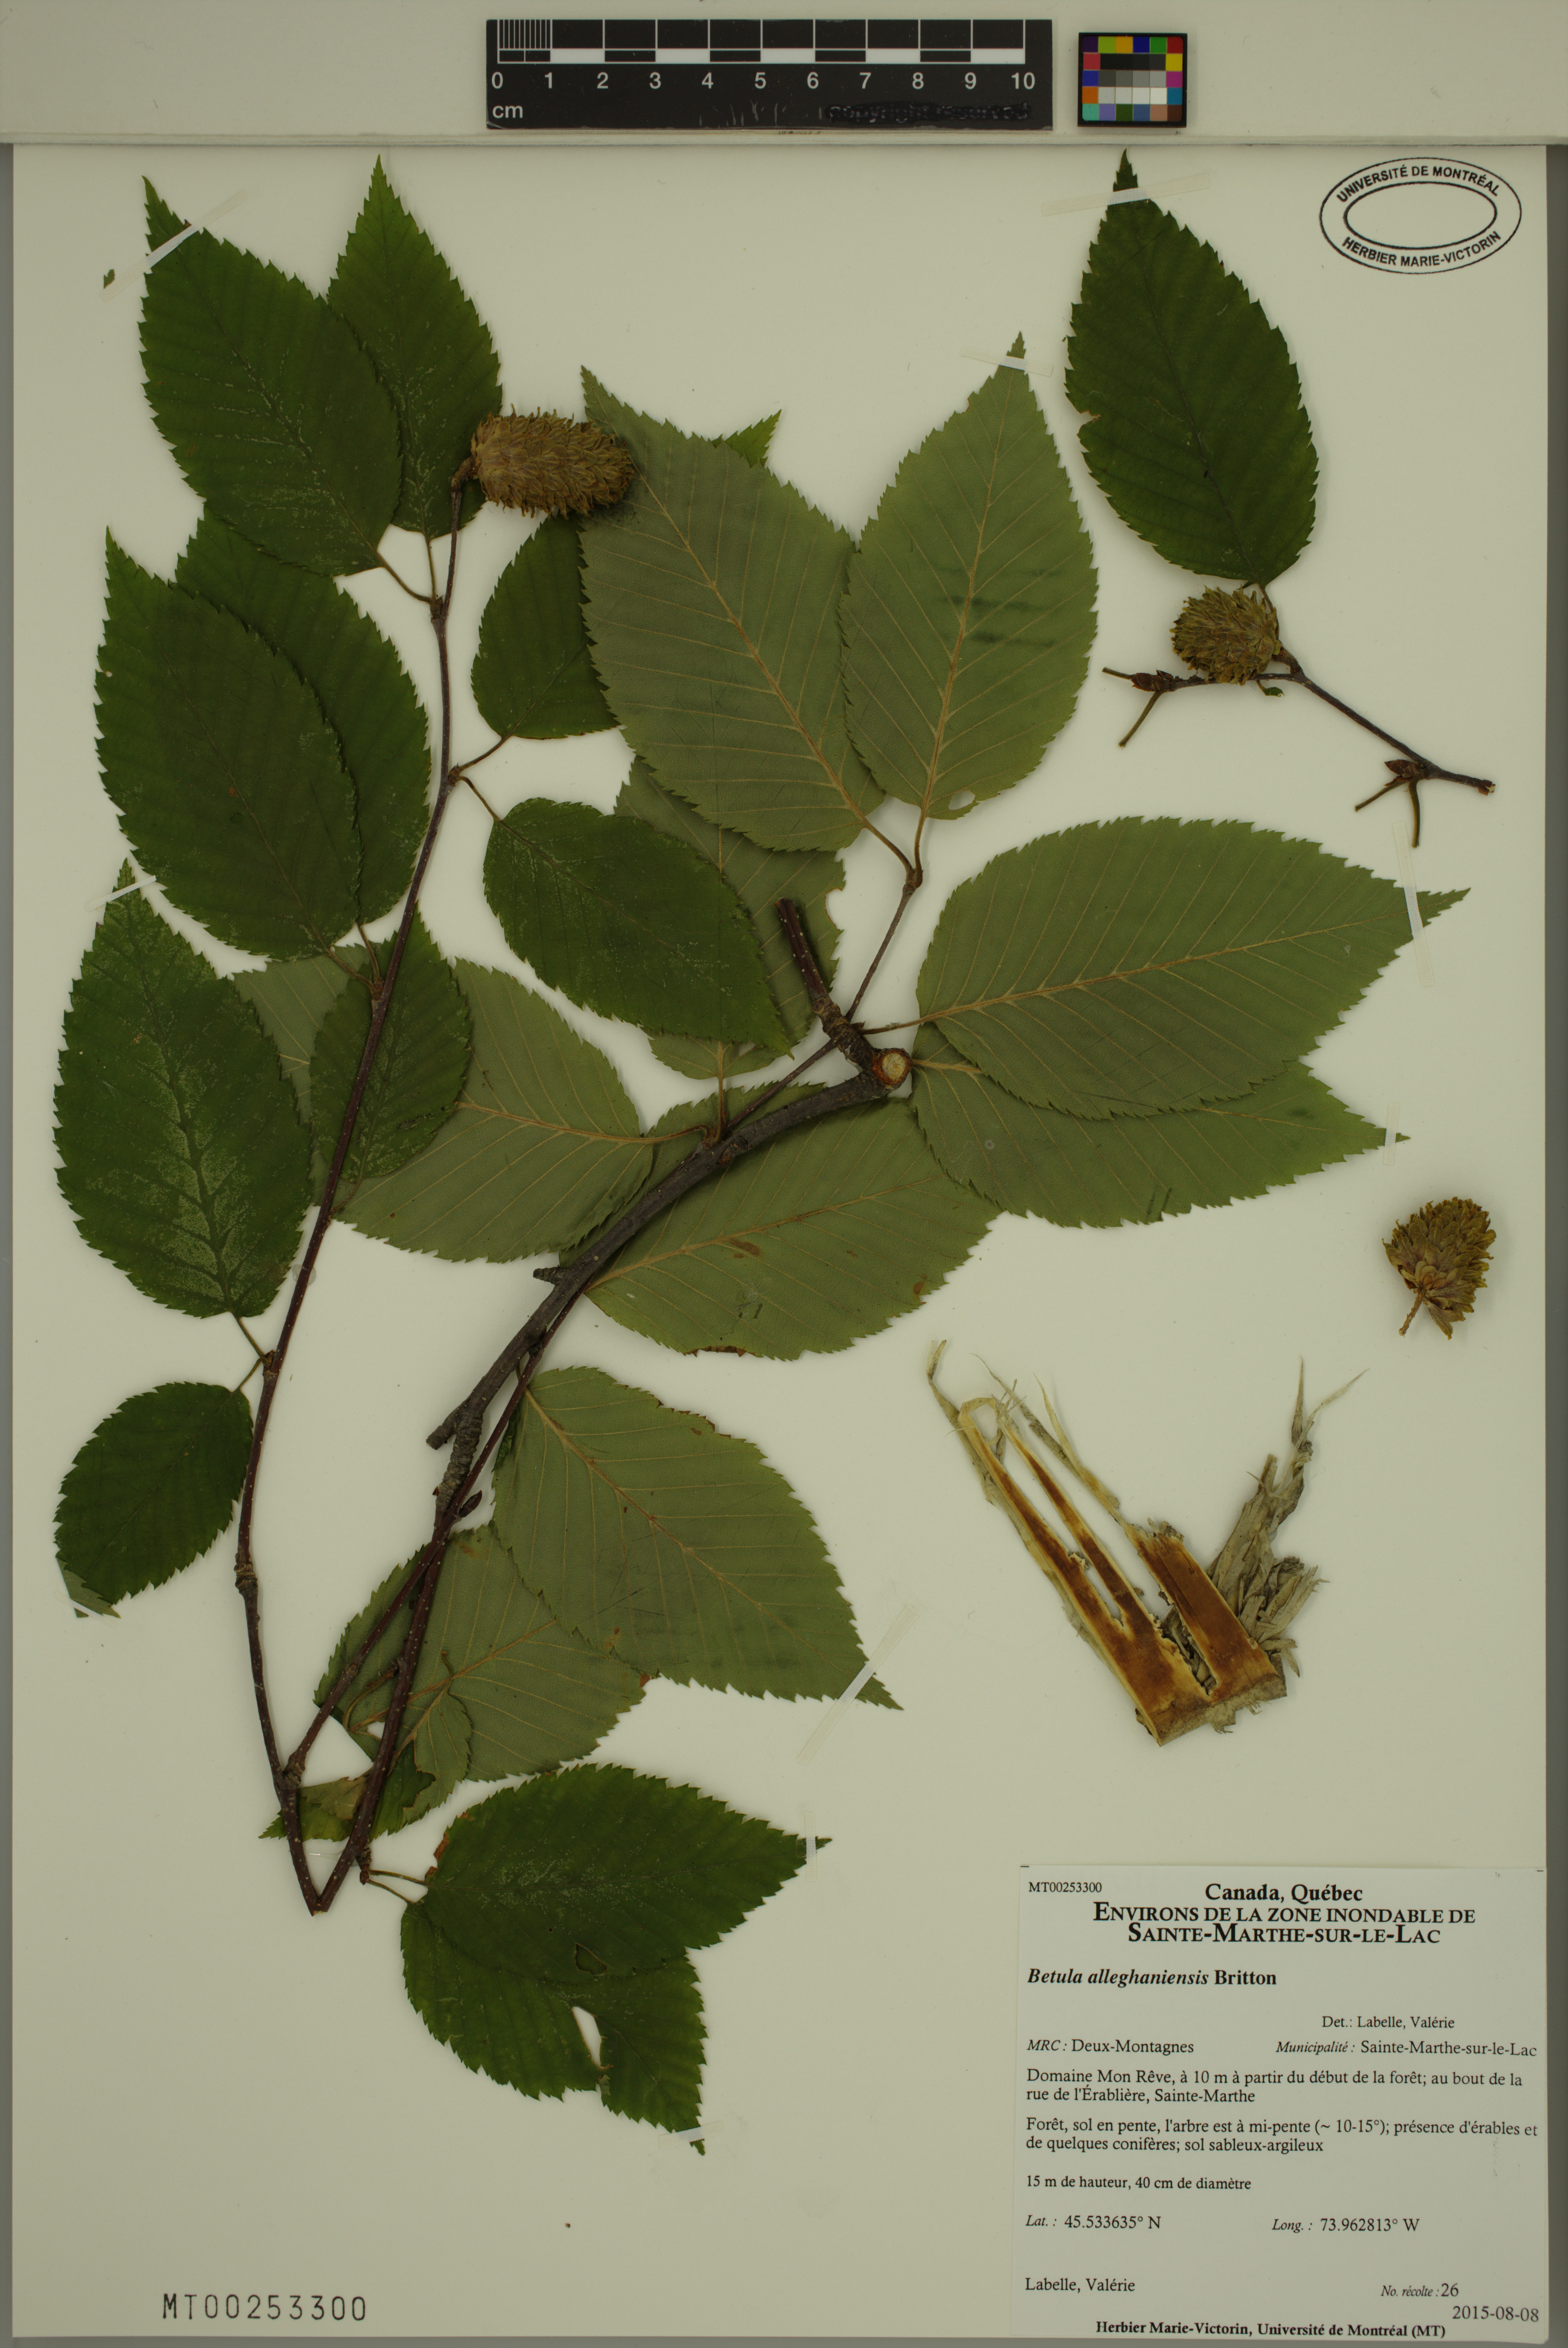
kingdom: Plantae
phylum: Tracheophyta
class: Magnoliopsida
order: Fagales
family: Betulaceae
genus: Betula
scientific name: Betula alleghaniensis
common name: Yellow birch
